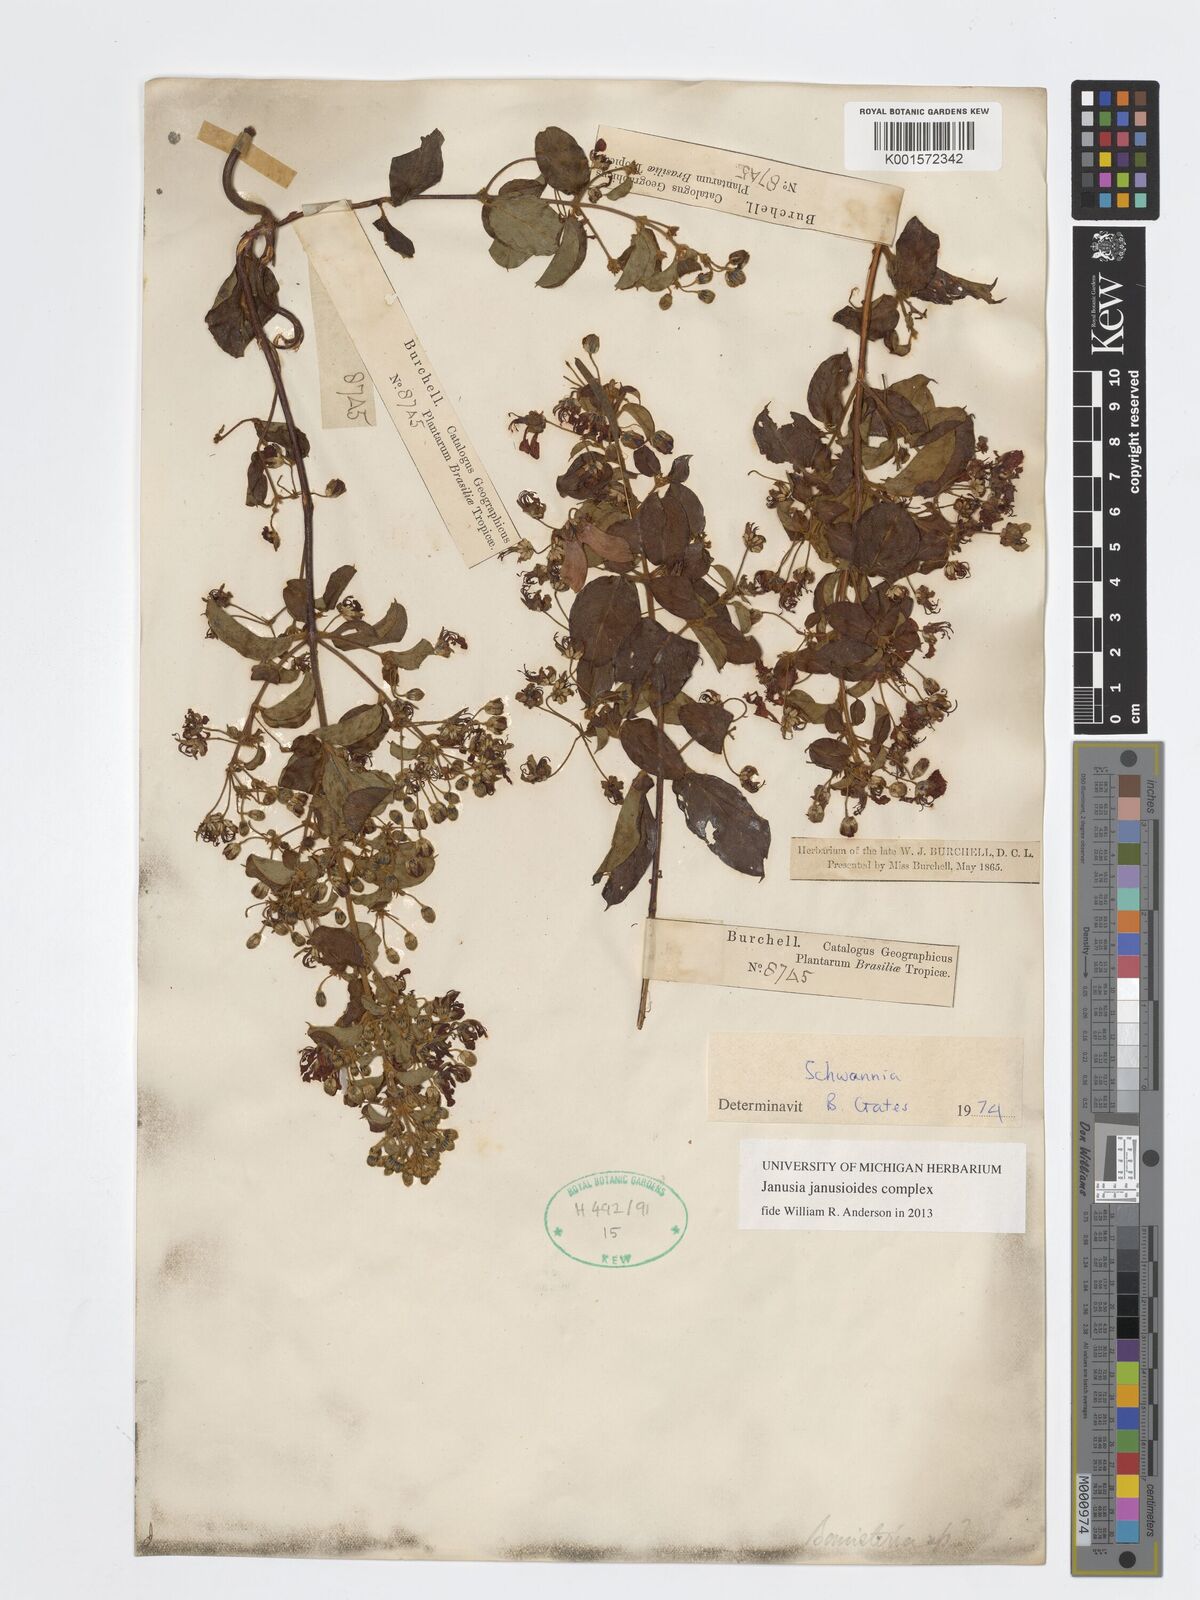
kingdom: Plantae
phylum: Tracheophyta
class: Magnoliopsida
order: Malpighiales
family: Malpighiaceae
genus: Janusia
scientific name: Janusia janusioides
